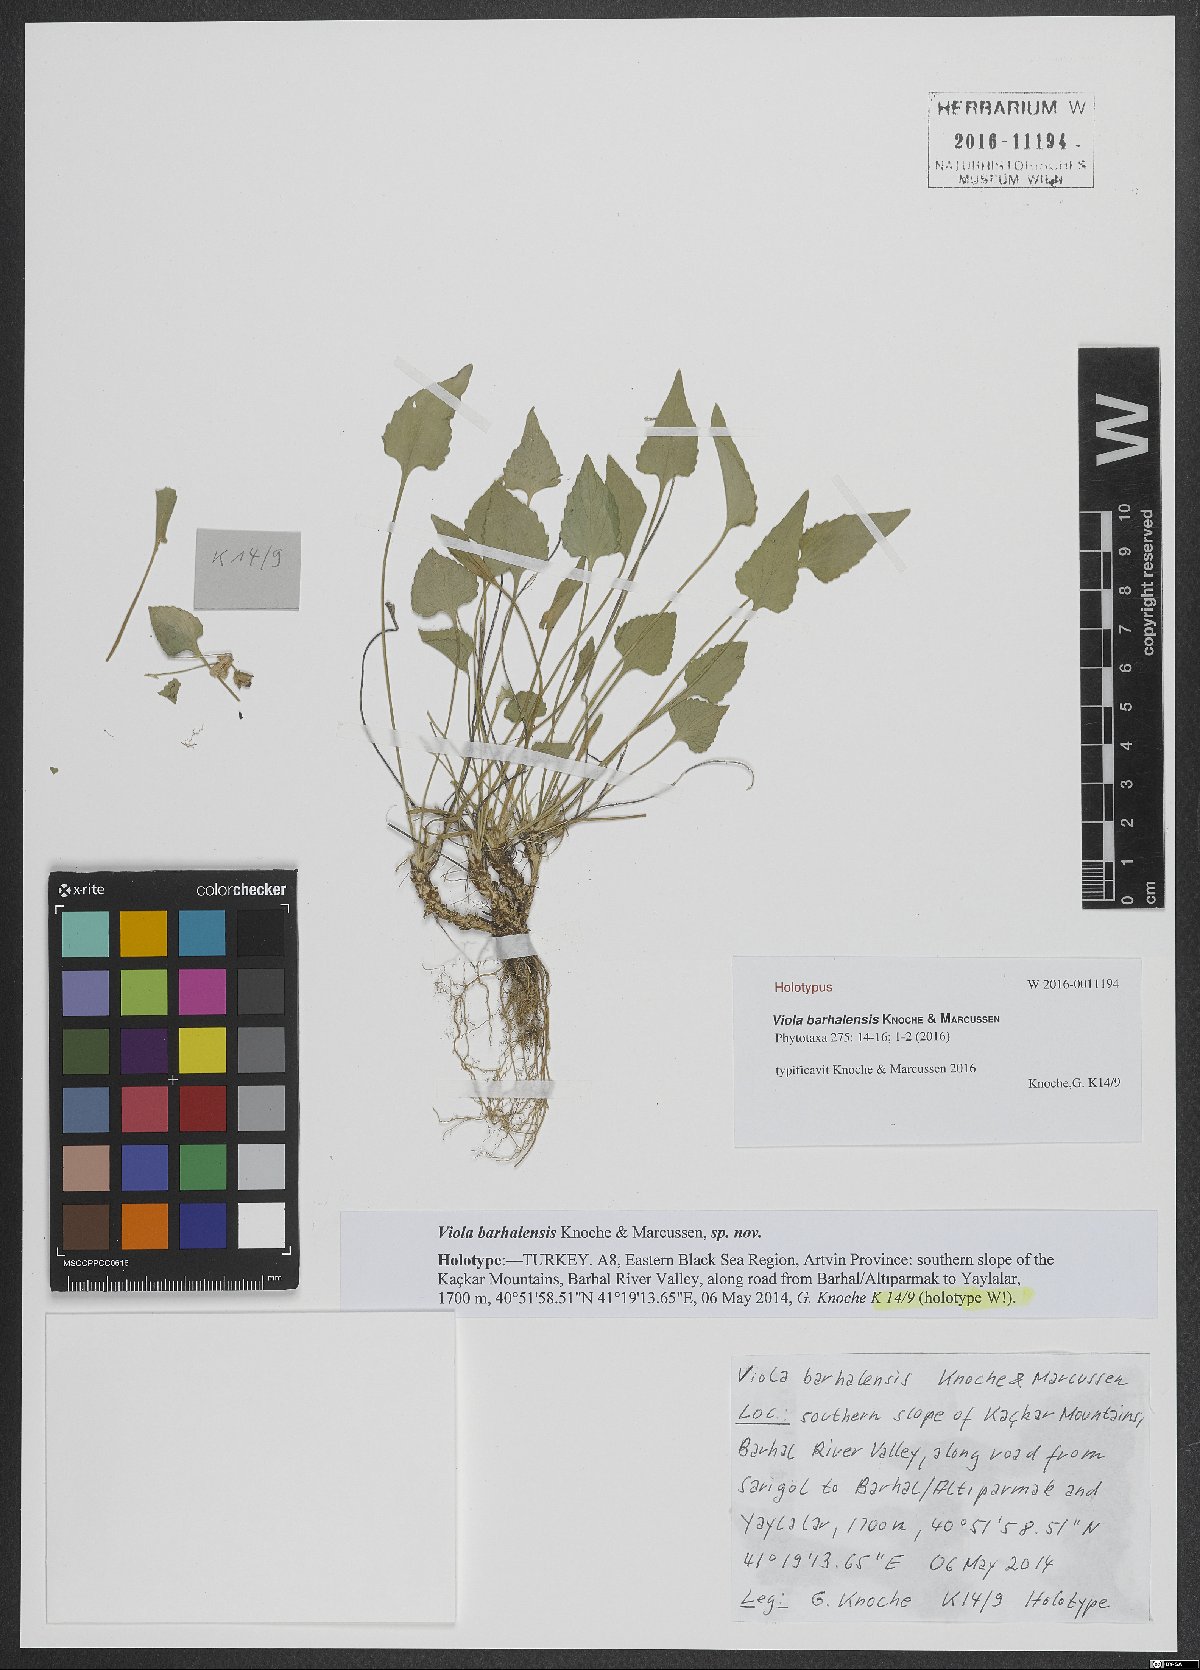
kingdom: Plantae
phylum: Tracheophyta
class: Magnoliopsida
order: Malpighiales
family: Violaceae
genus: Viola
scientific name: Viola barhalensis
